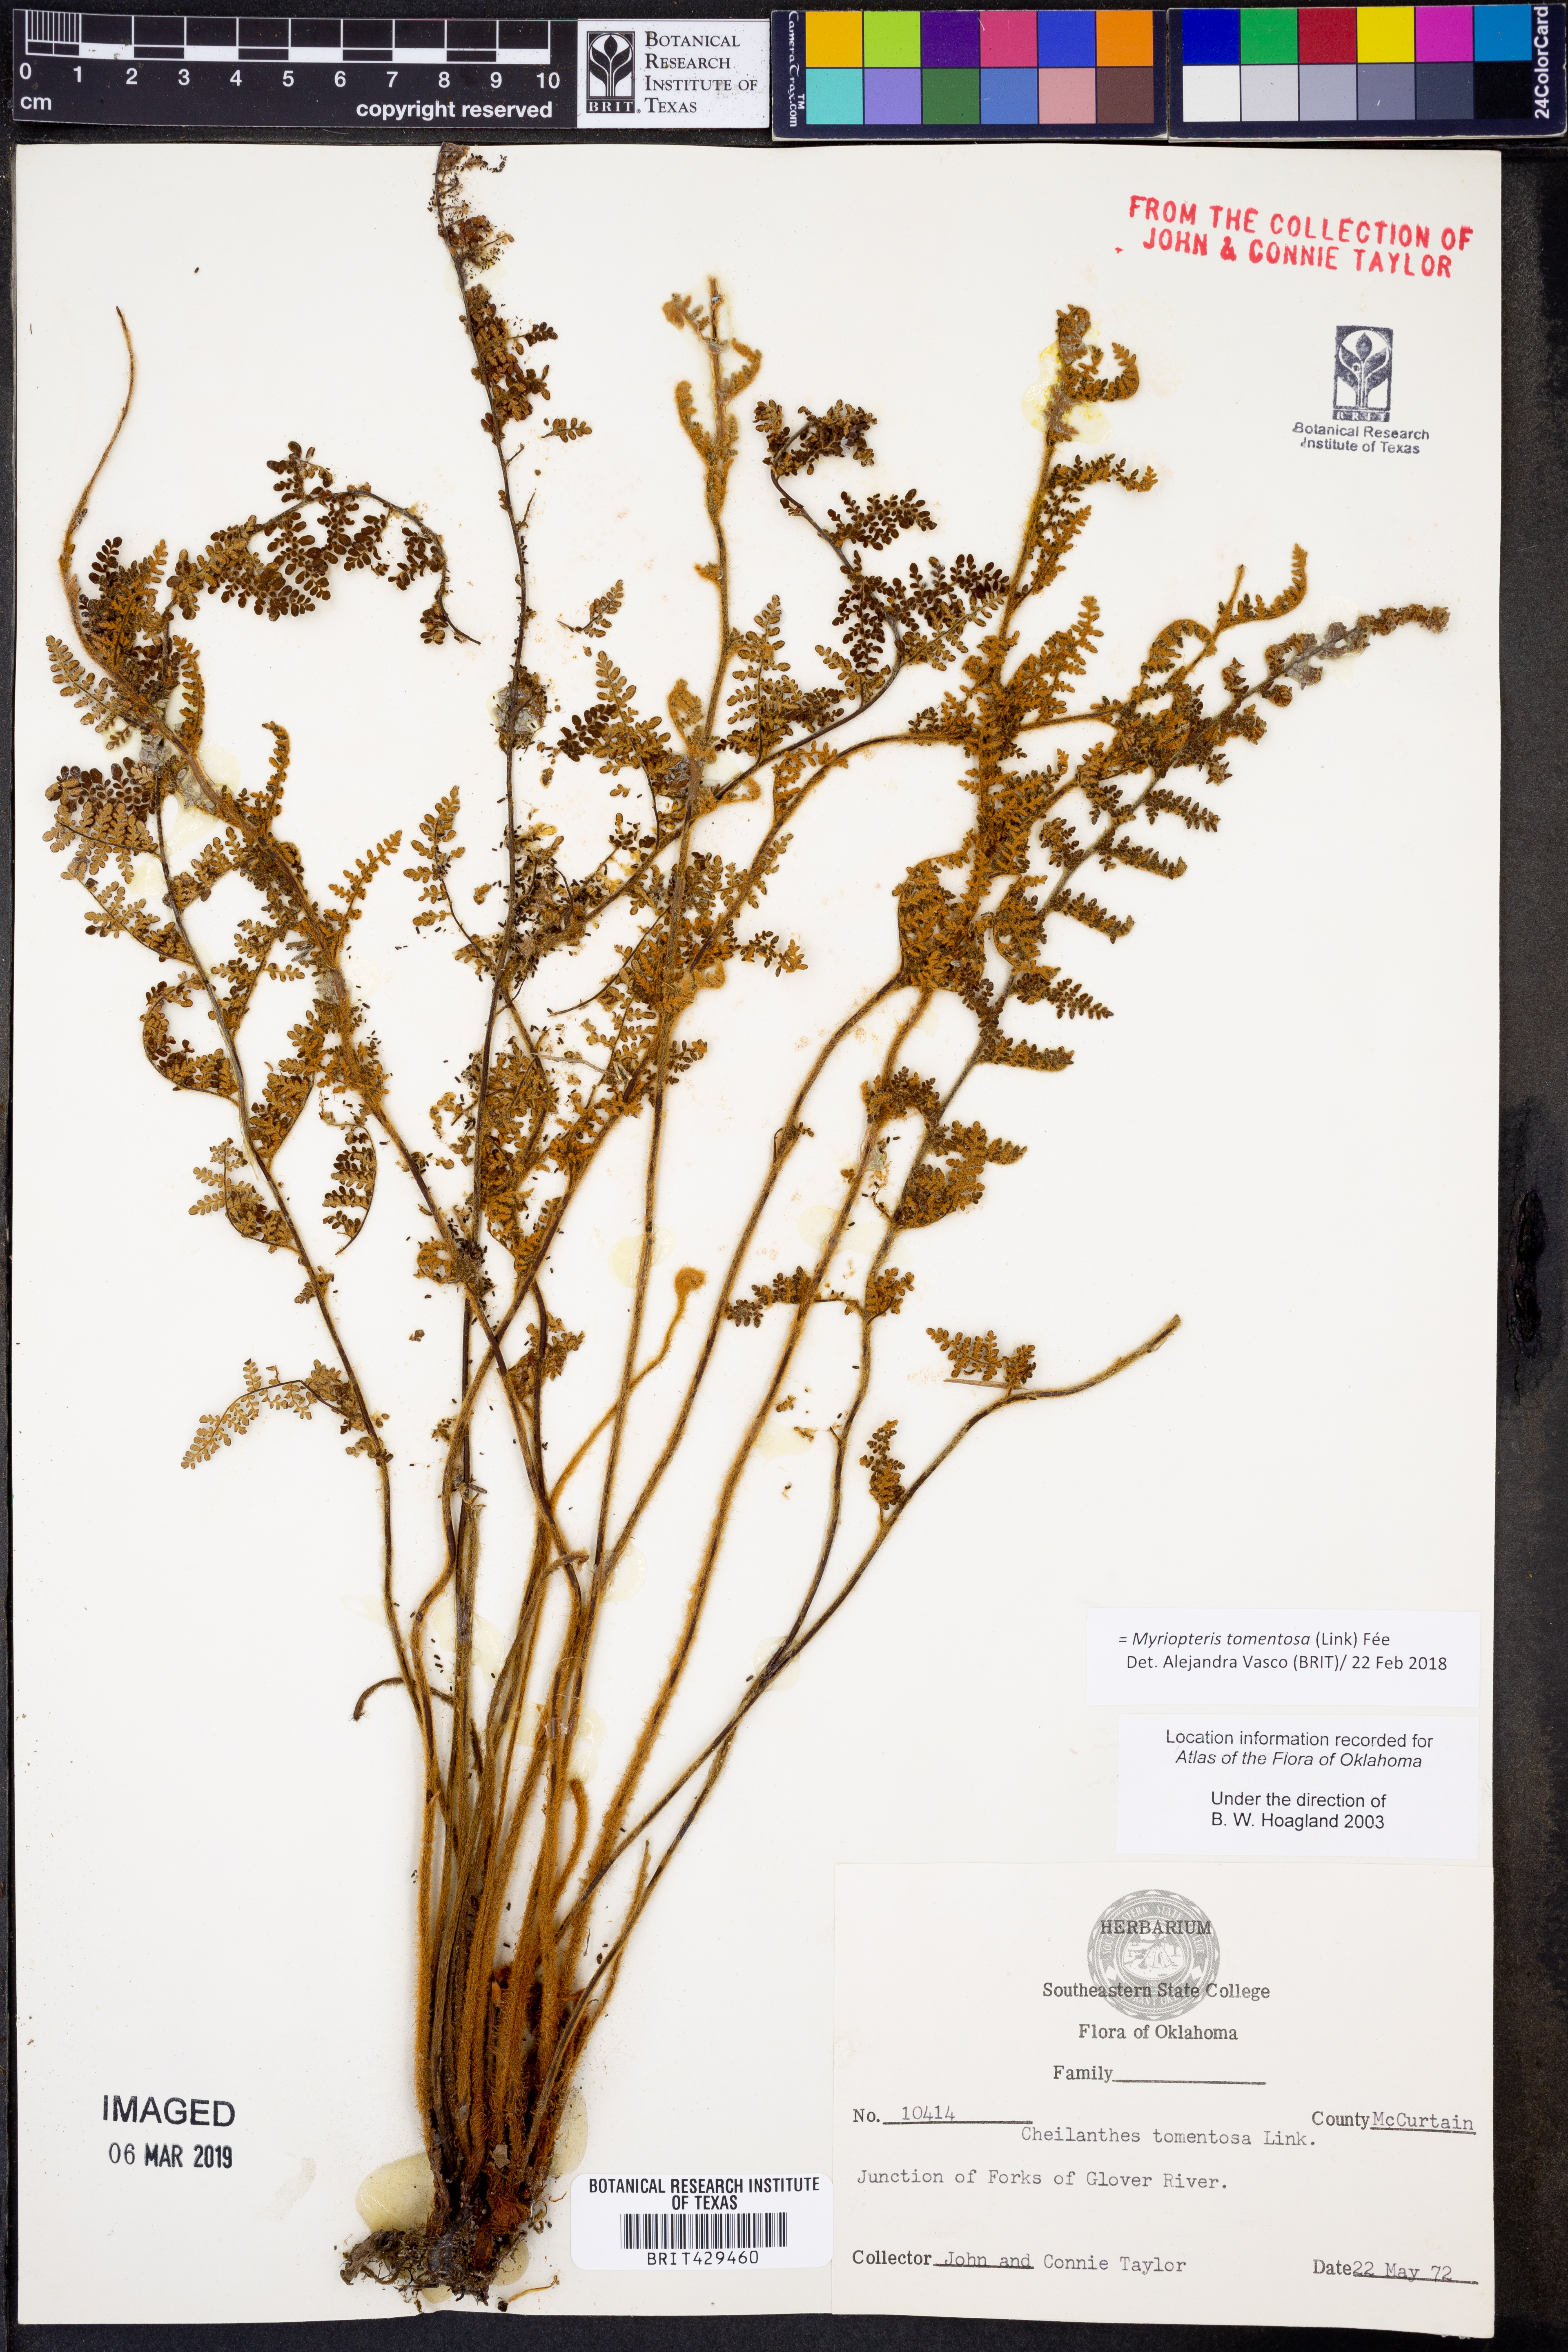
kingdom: Plantae
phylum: Tracheophyta
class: Polypodiopsida
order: Polypodiales
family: Pteridaceae
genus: Myriopteris
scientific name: Myriopteris tomentosa
